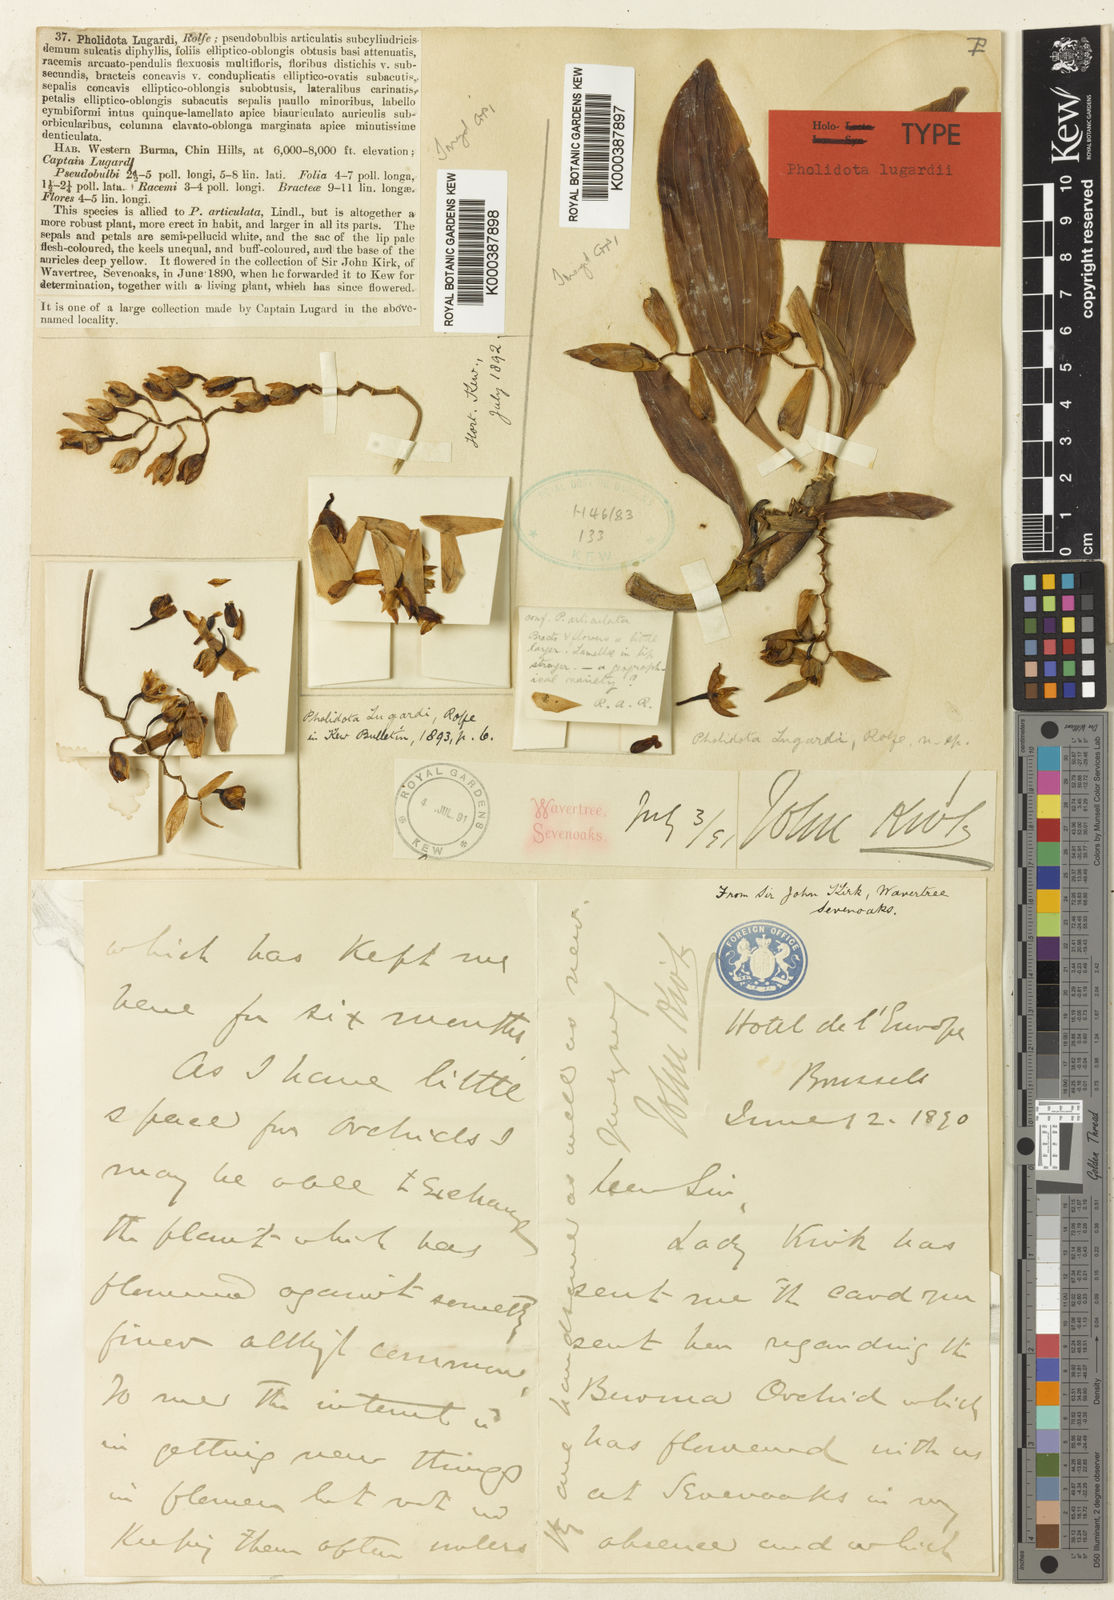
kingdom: Plantae
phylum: Tracheophyta
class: Liliopsida
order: Asparagales
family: Orchidaceae
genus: Coelogyne
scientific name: Coelogyne articulata
